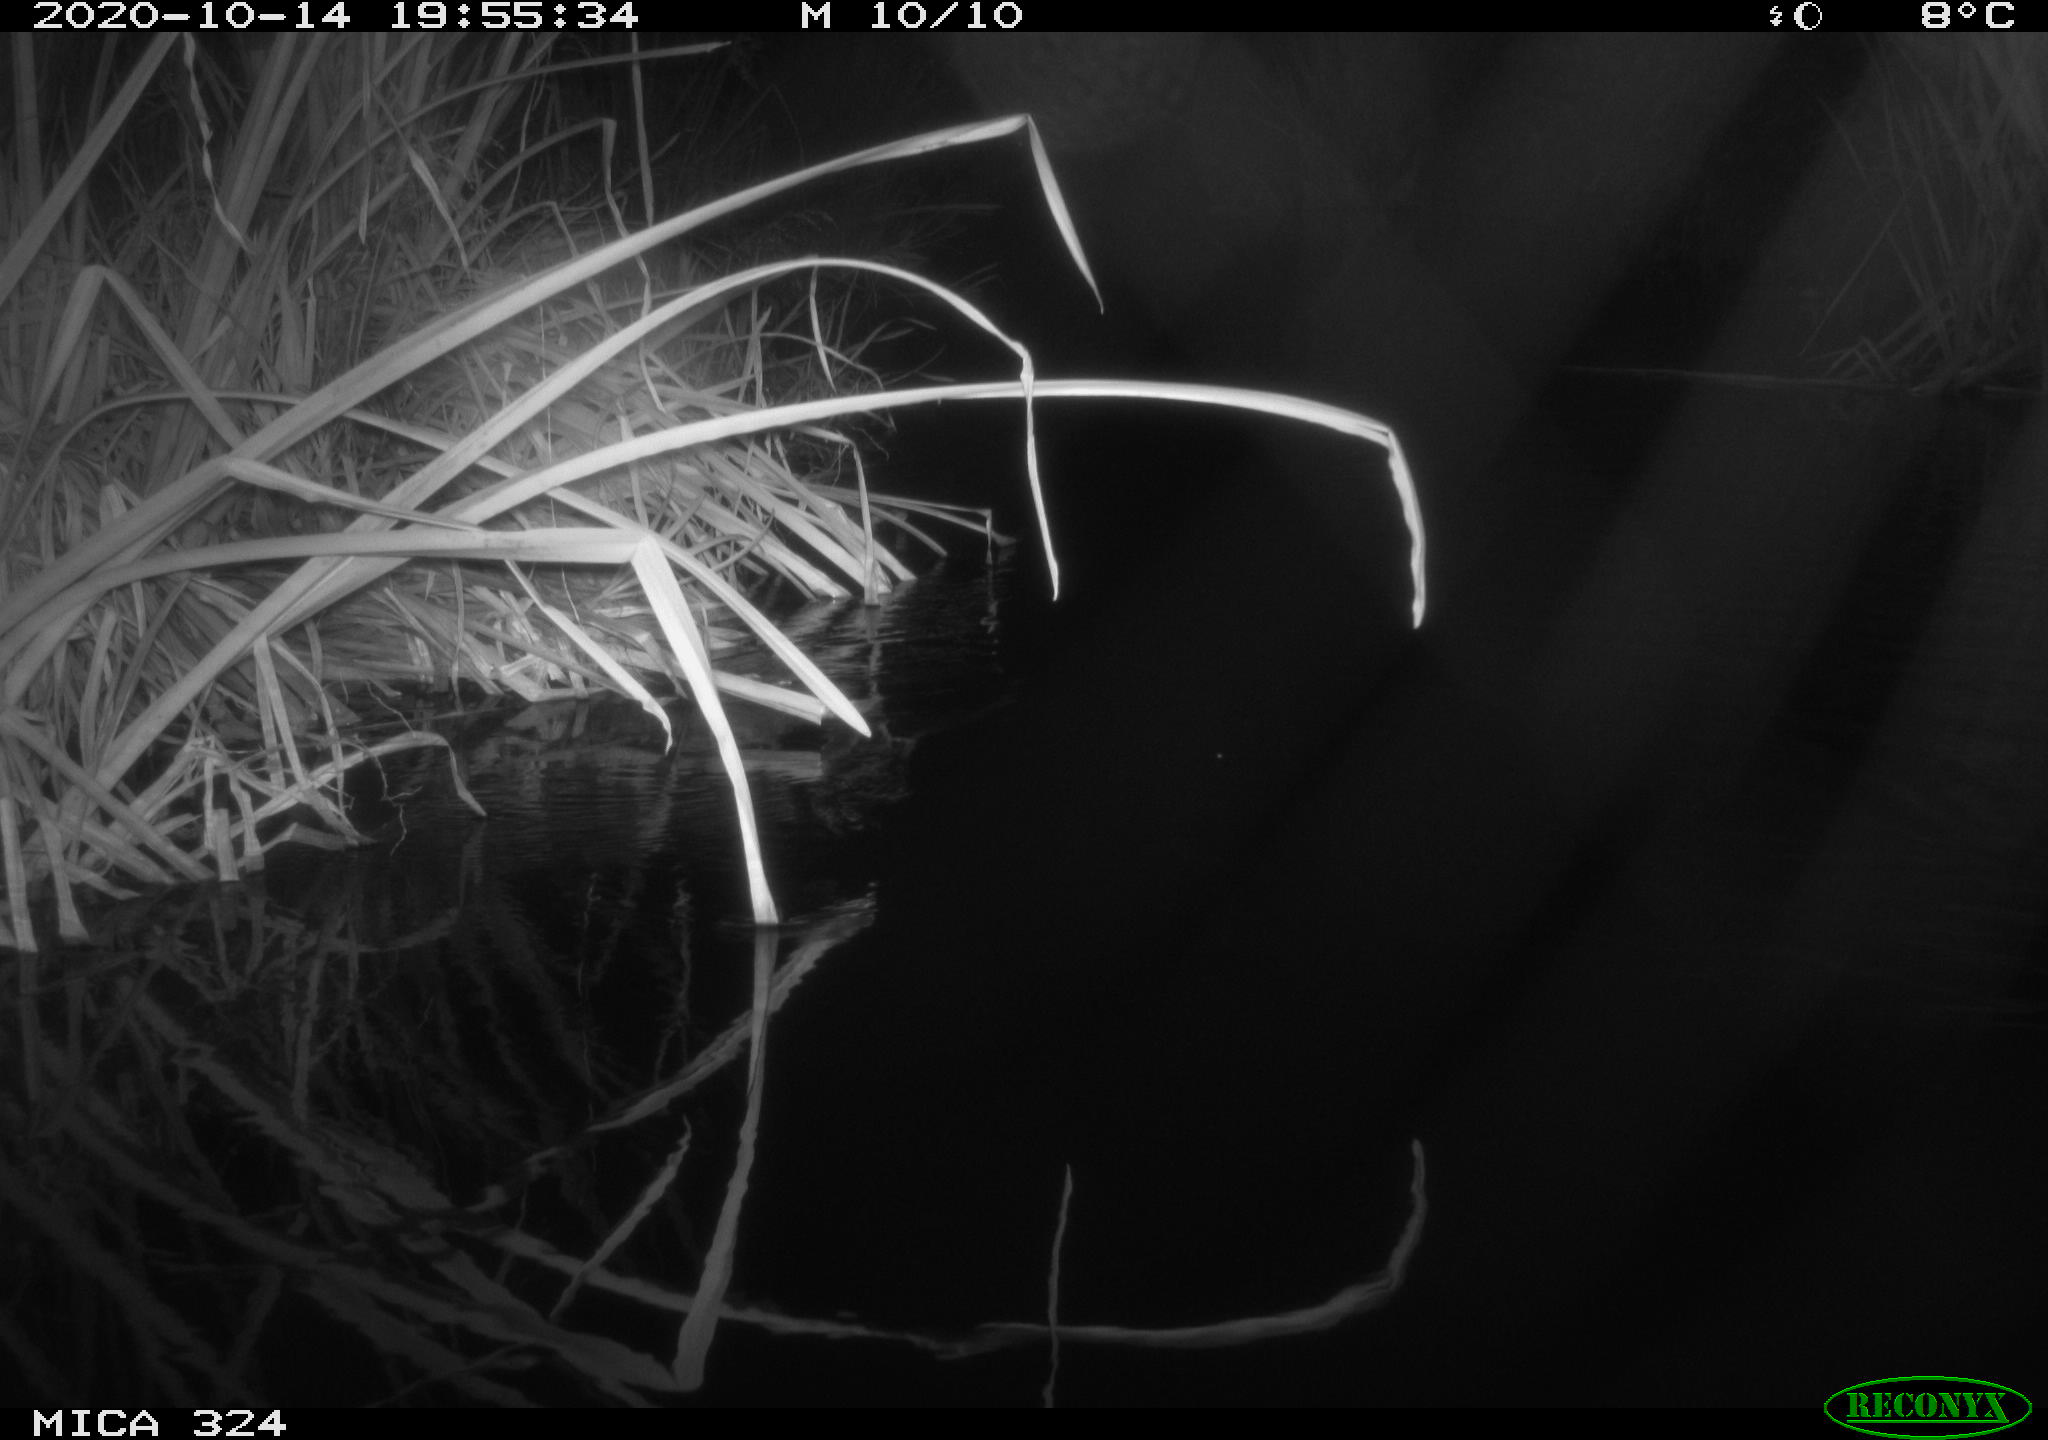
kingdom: Animalia
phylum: Chordata
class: Aves
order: Gruiformes
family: Rallidae
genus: Gallinula
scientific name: Gallinula chloropus
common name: Common moorhen
